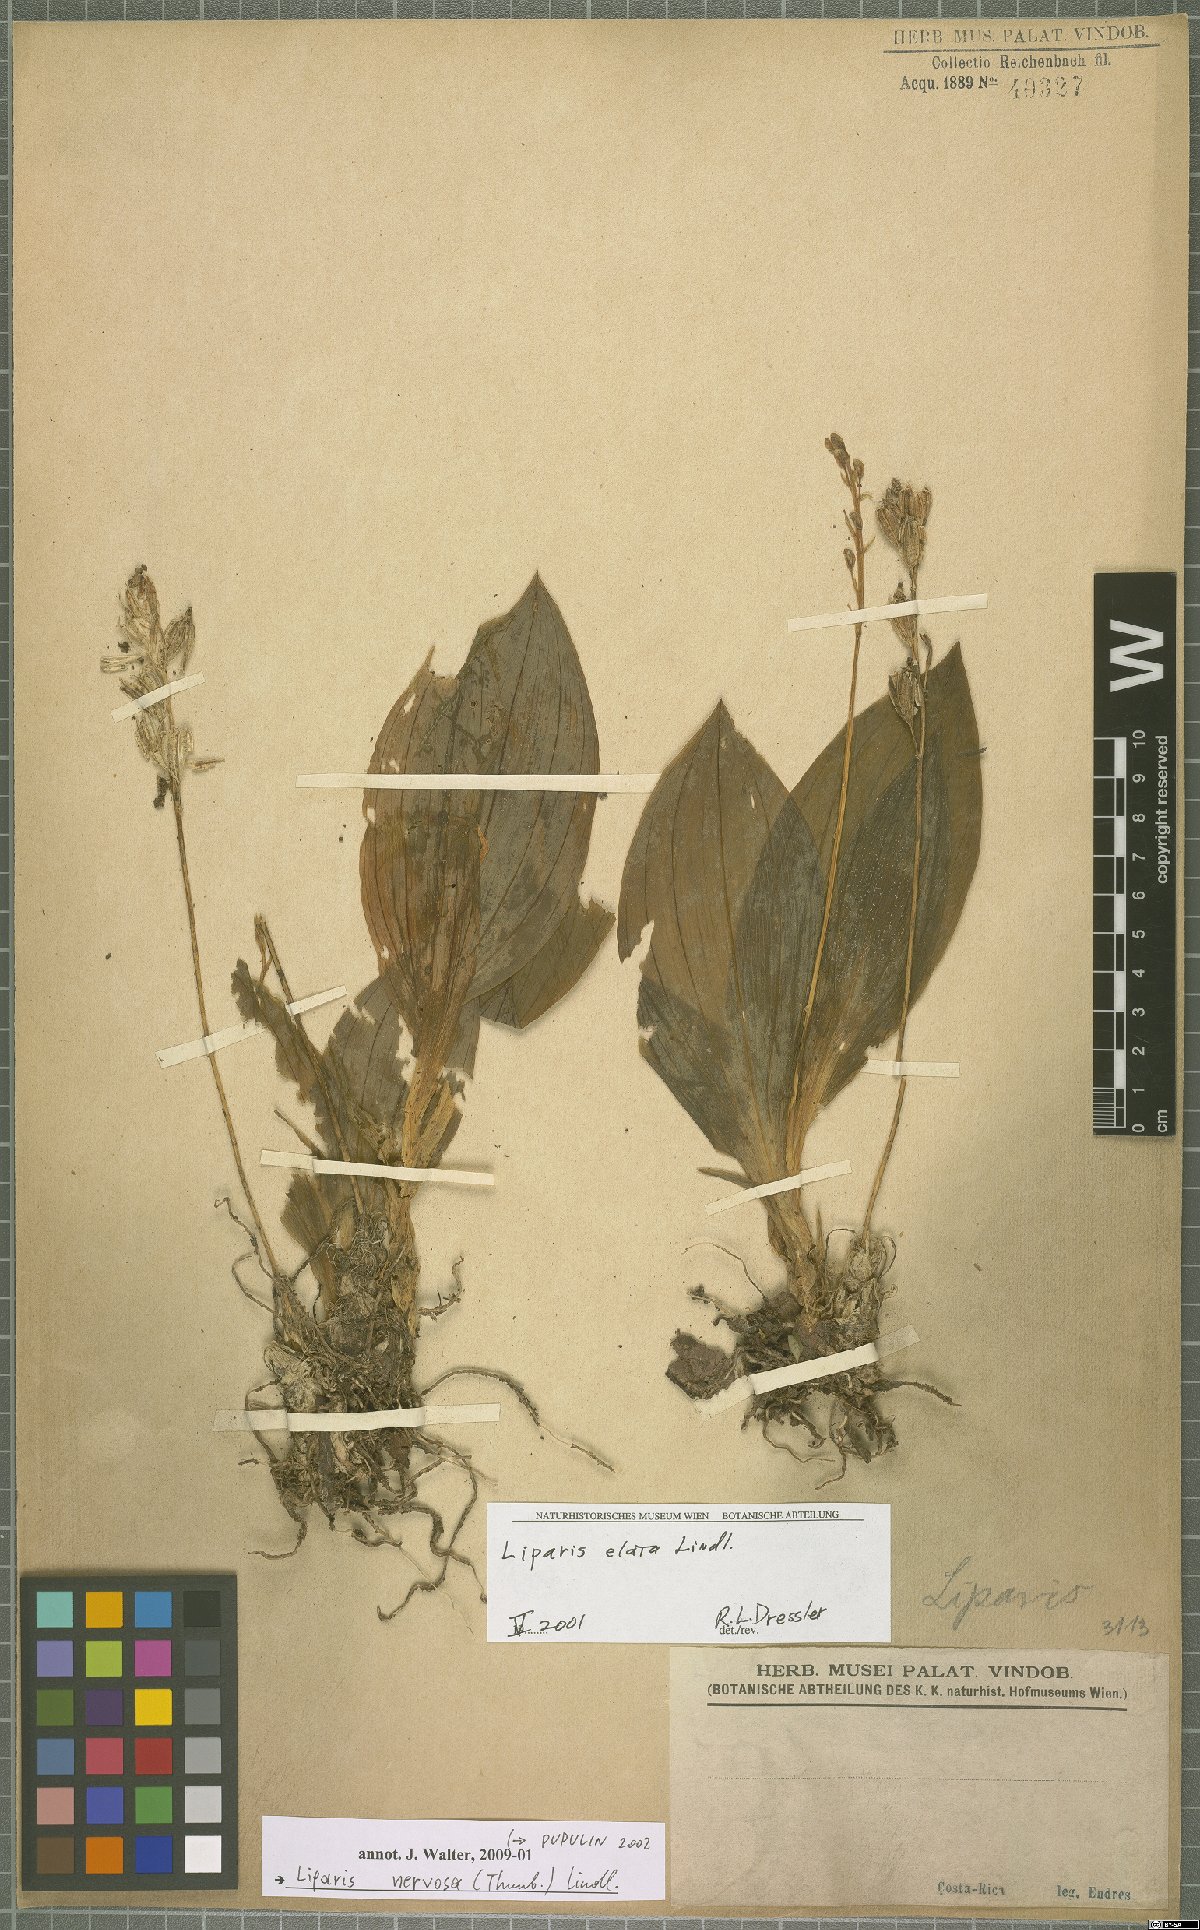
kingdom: Plantae
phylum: Tracheophyta
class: Liliopsida
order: Asparagales
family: Orchidaceae
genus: Liparis
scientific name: Liparis nervosa
